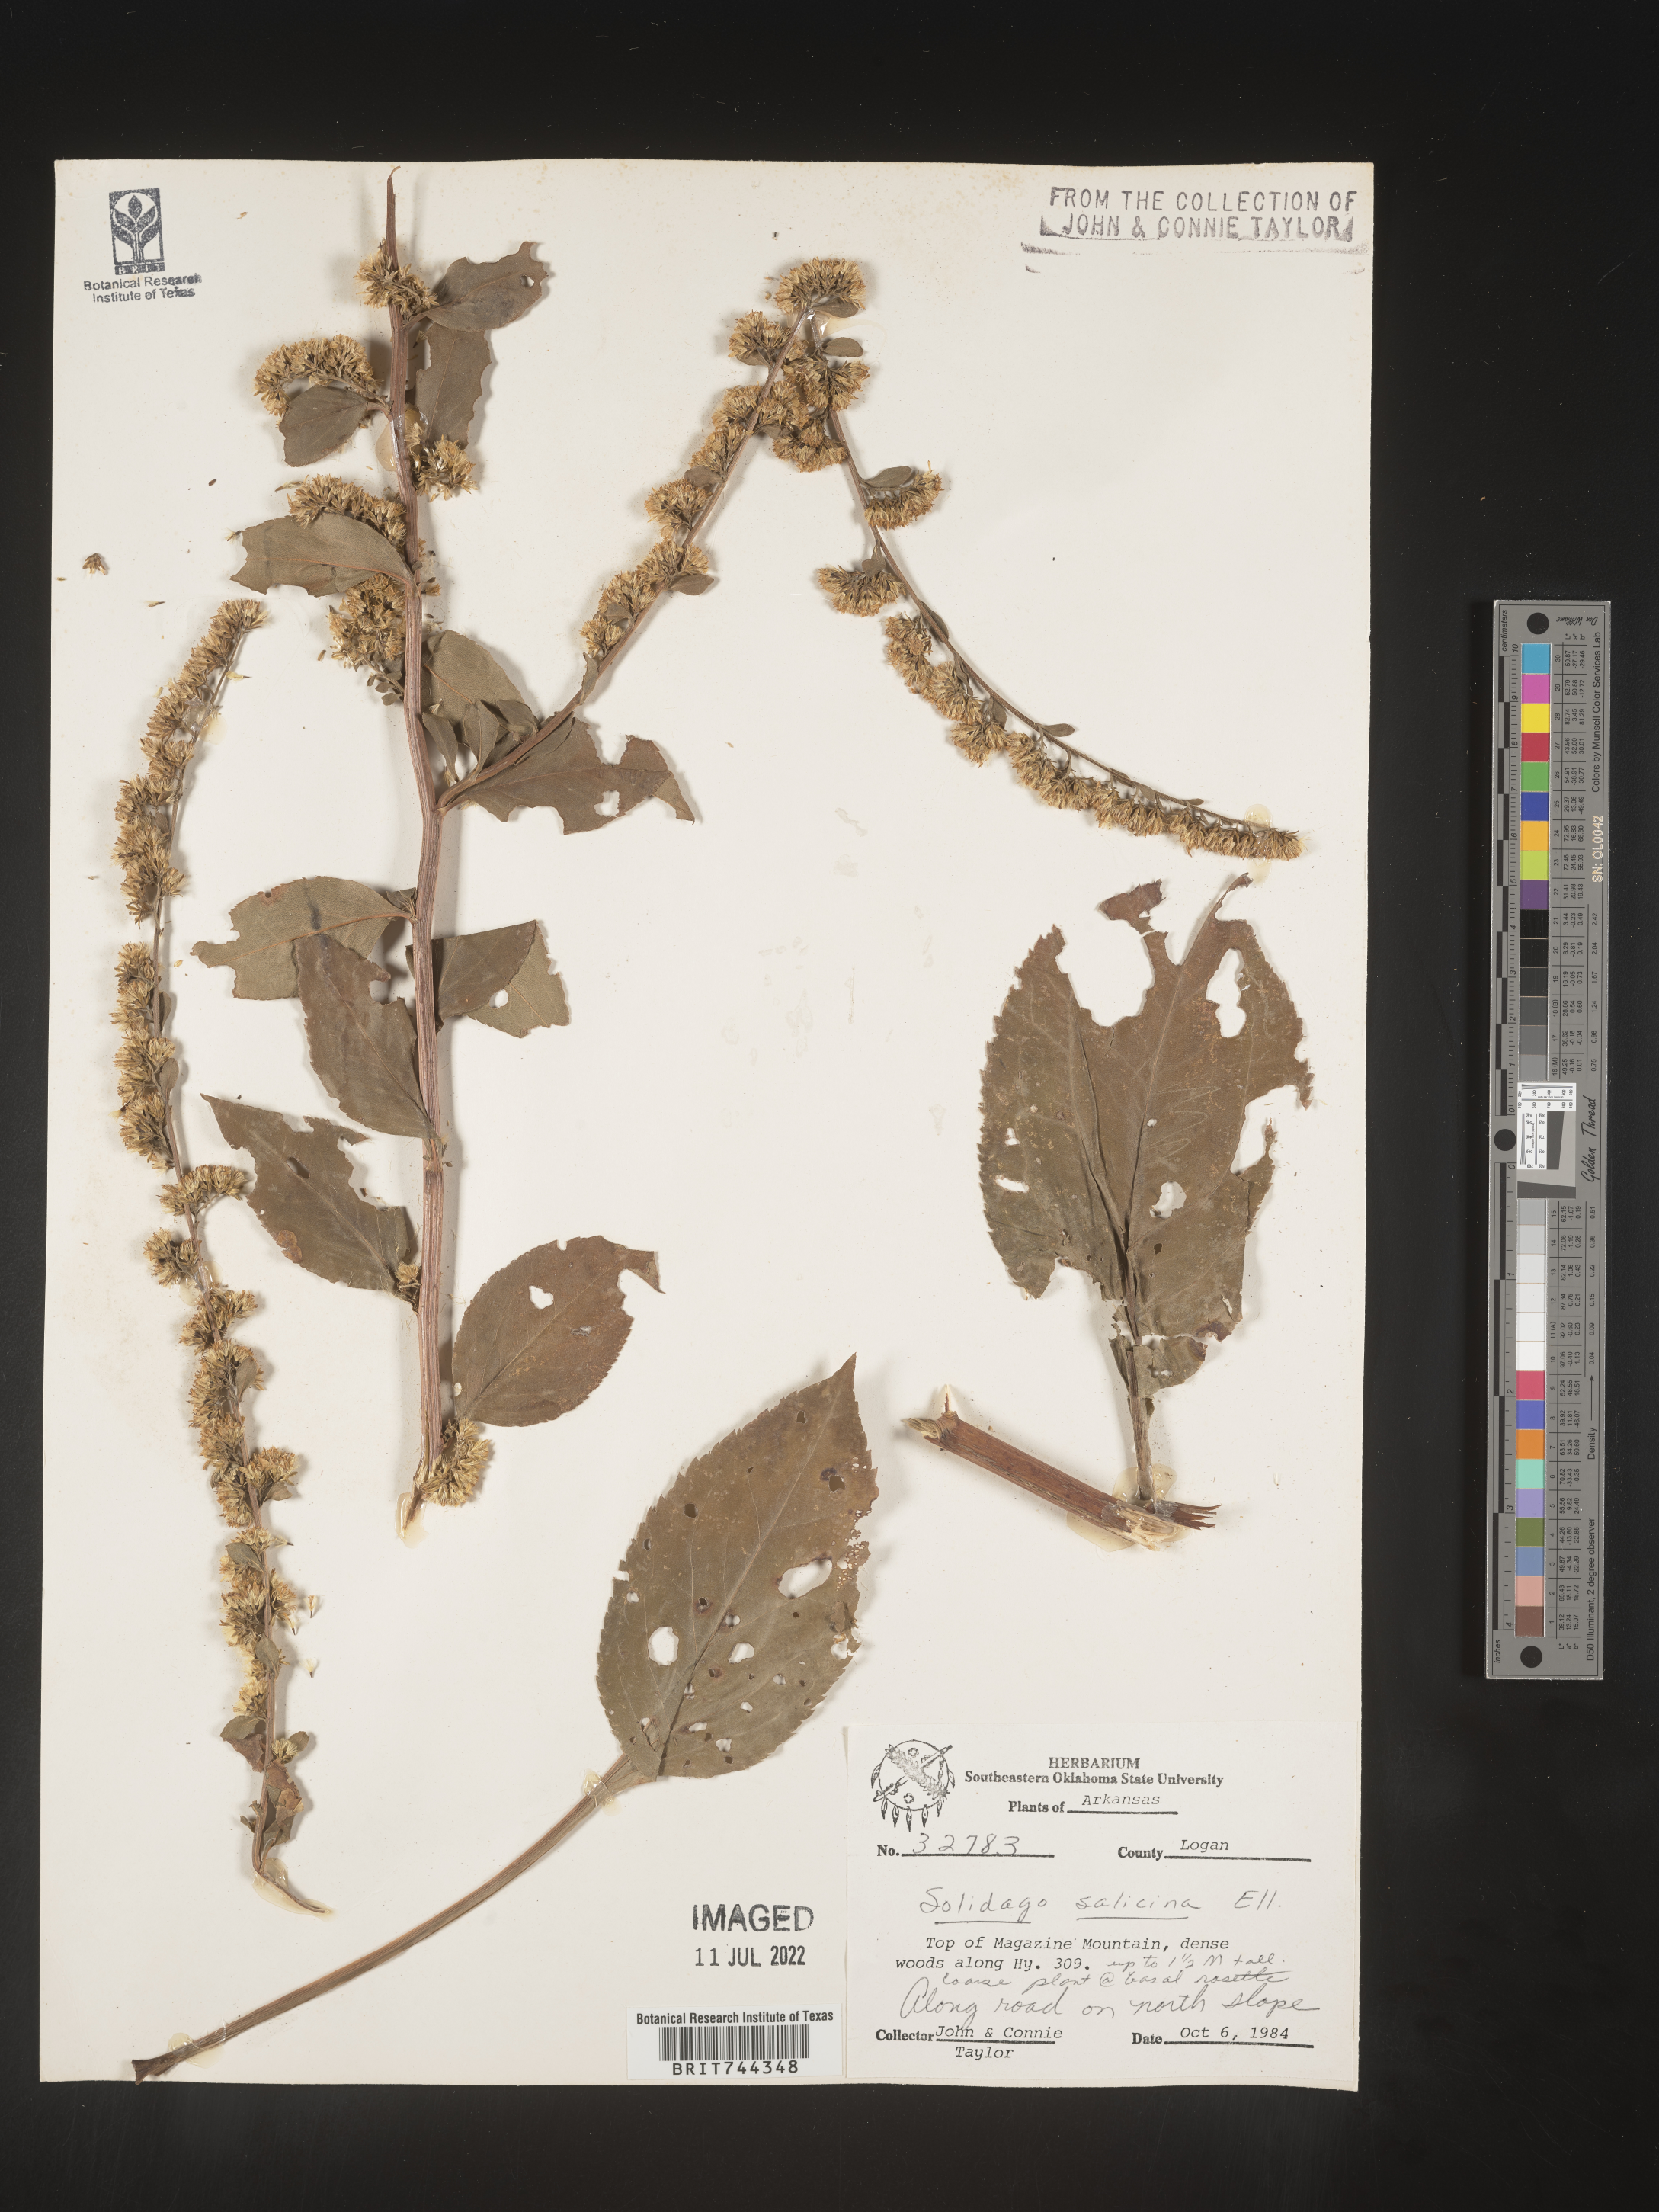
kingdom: Plantae
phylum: Tracheophyta
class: Magnoliopsida
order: Asterales
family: Asteraceae
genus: Solidago
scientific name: Solidago arguta
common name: Atlantic goldenrod
